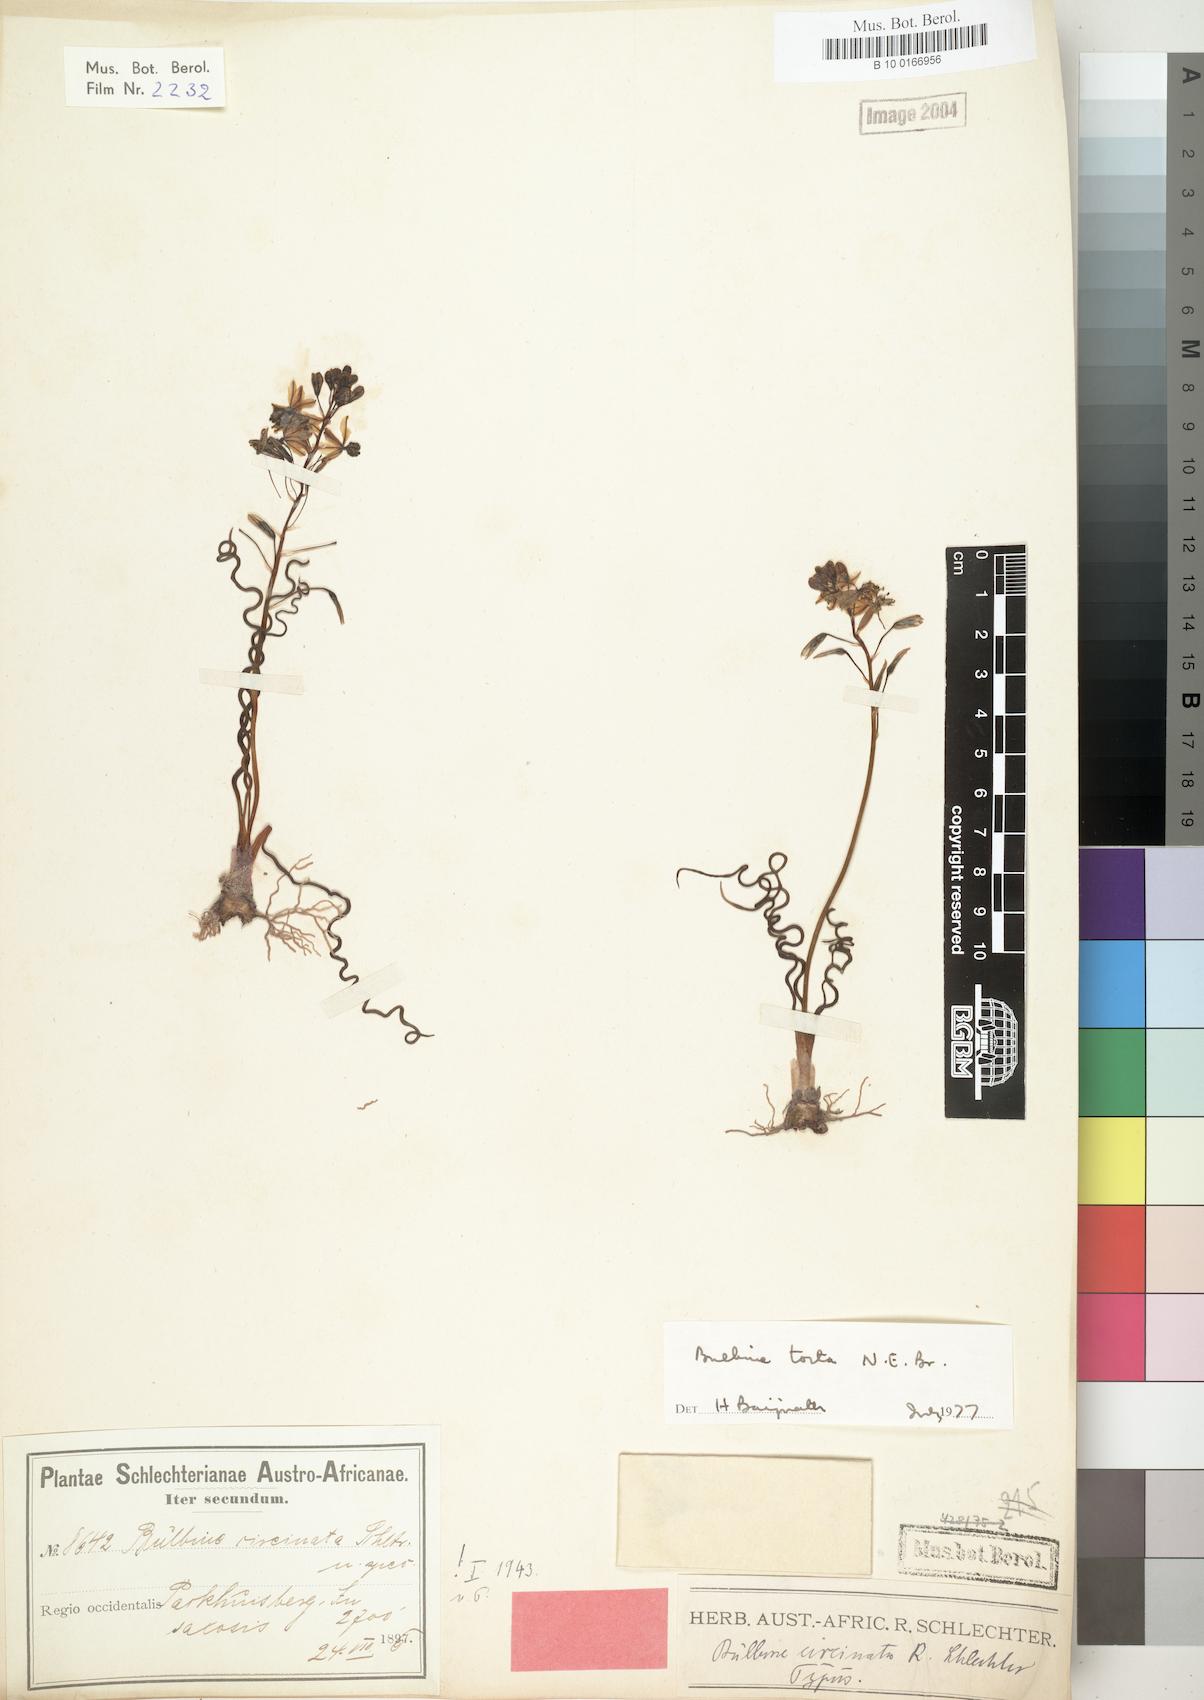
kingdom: Plantae
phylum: Tracheophyta
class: Liliopsida
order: Asparagales
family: Asphodelaceae
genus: Bulbine
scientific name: Bulbine torta
